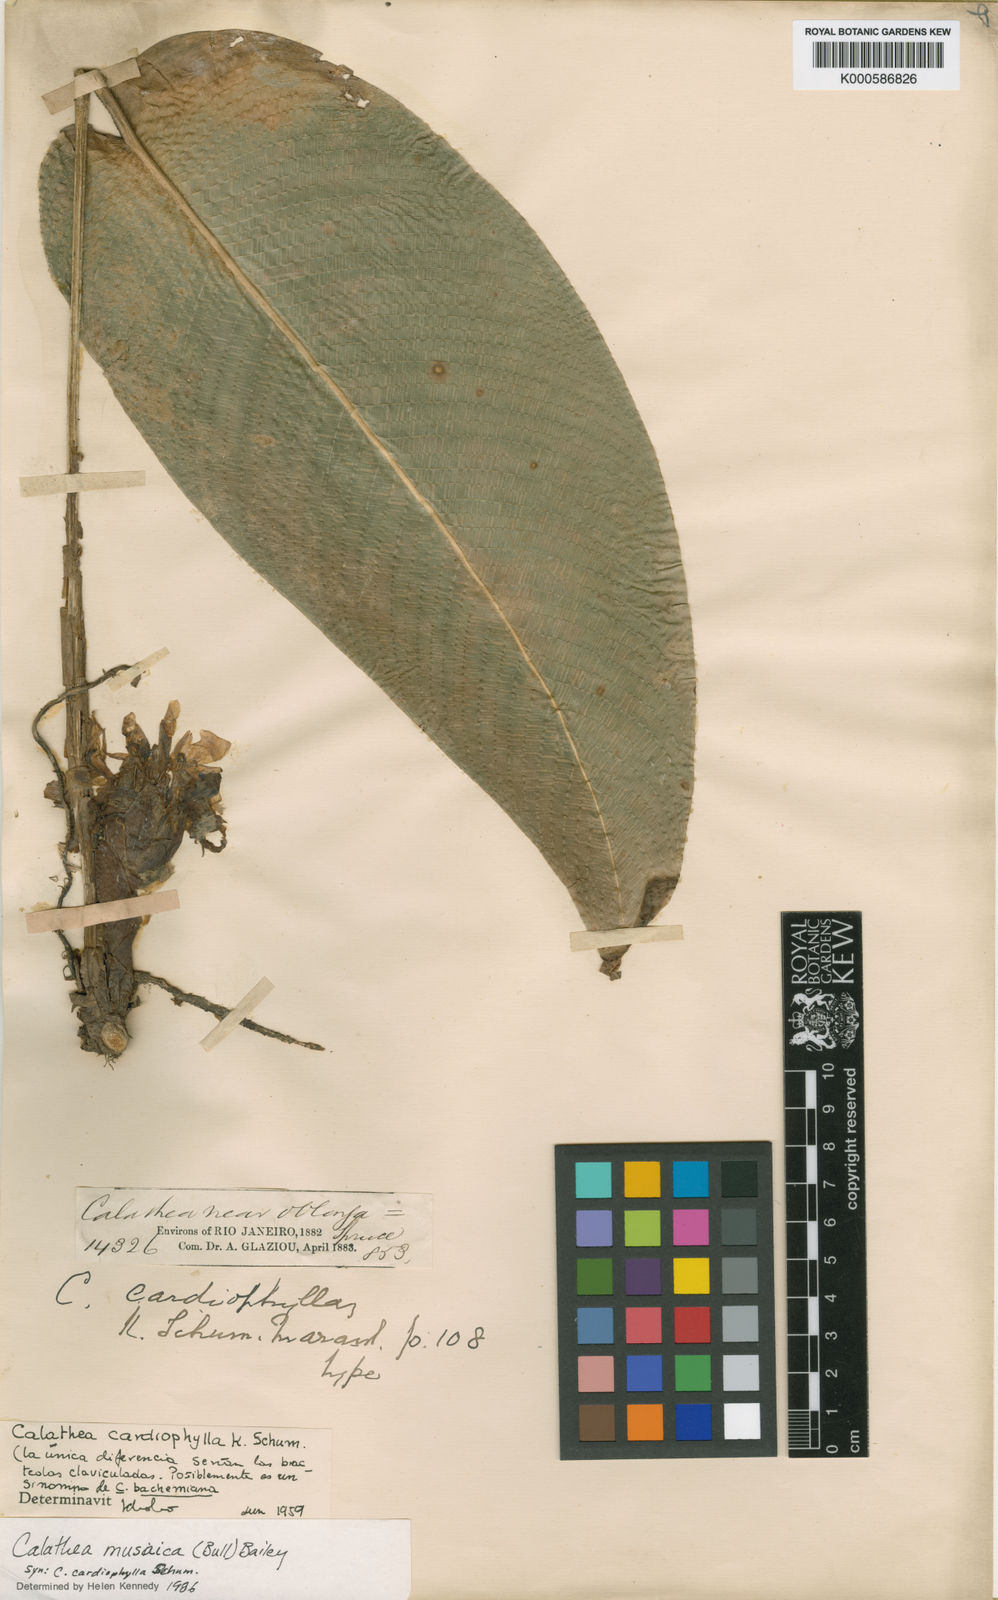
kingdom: Plantae
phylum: Tracheophyta
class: Liliopsida
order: Zingiberales
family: Marantaceae
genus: Goeppertia
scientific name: Goeppertia kegeljanii
